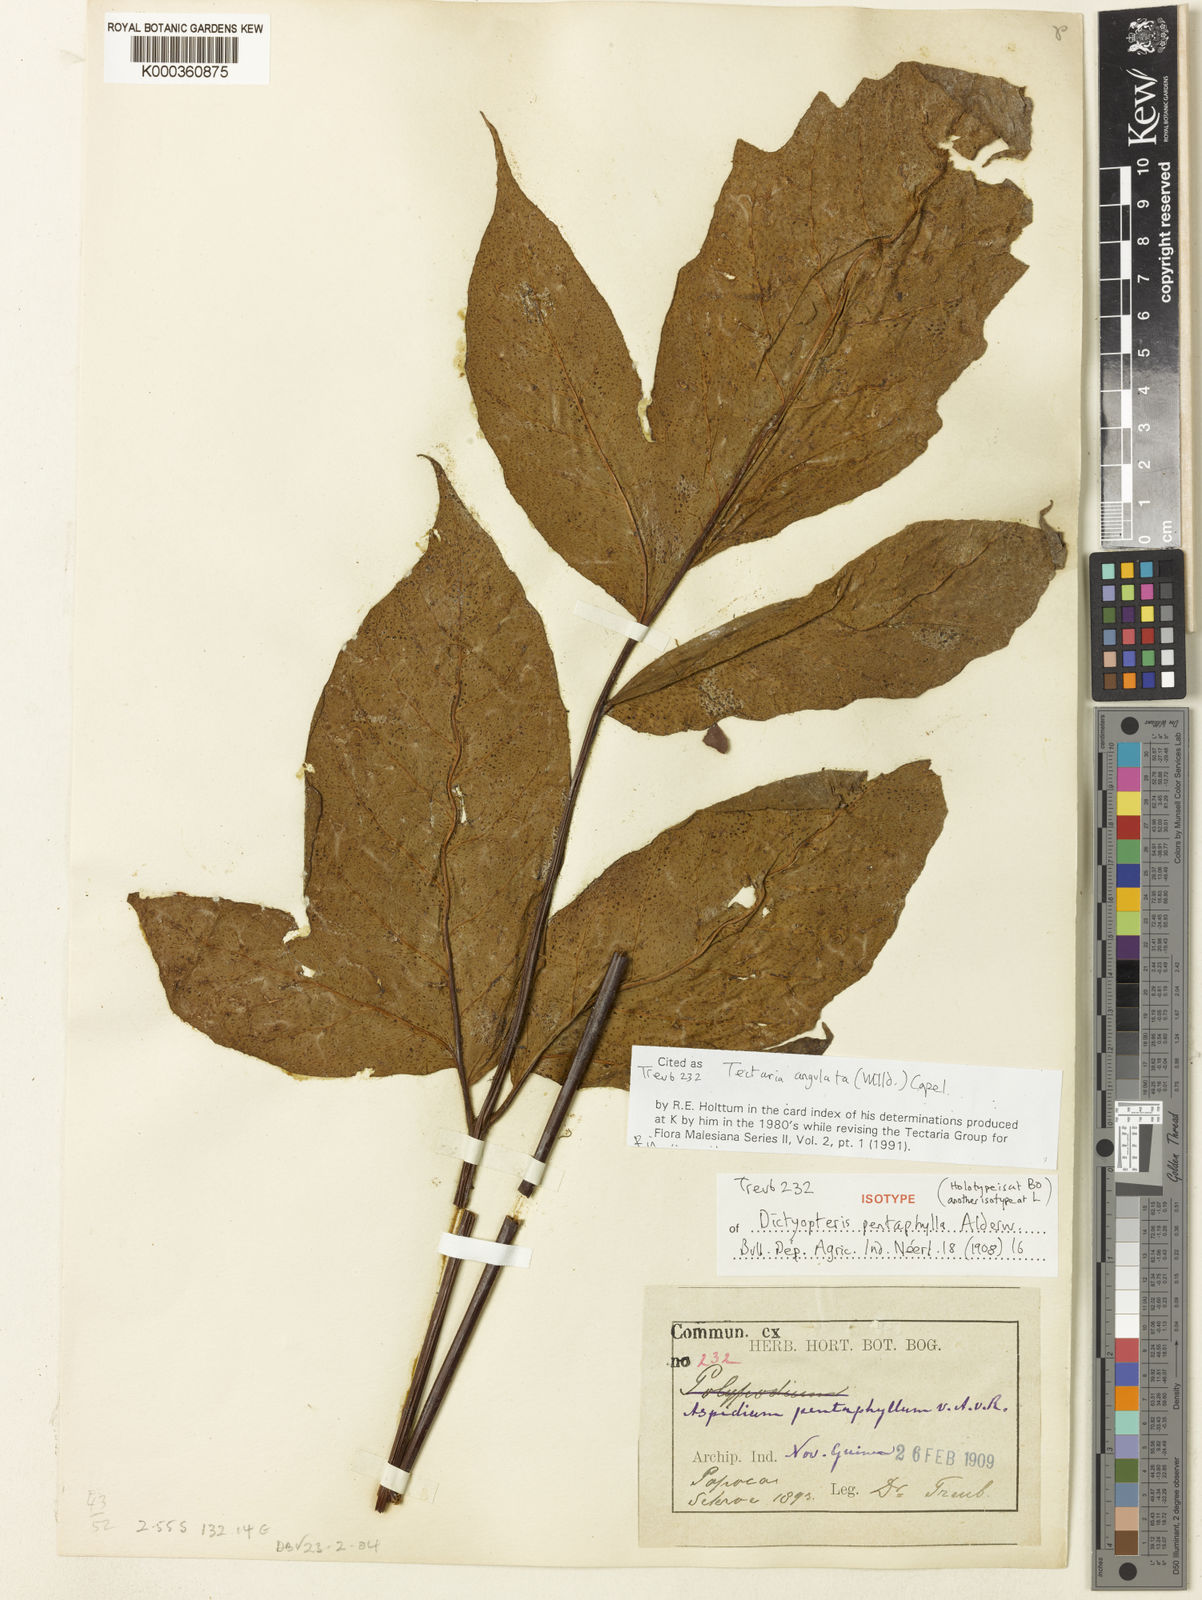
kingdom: Plantae
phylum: Tracheophyta
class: Polypodiopsida
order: Polypodiales
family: Tectariaceae
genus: Tectaria
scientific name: Tectaria angulata
